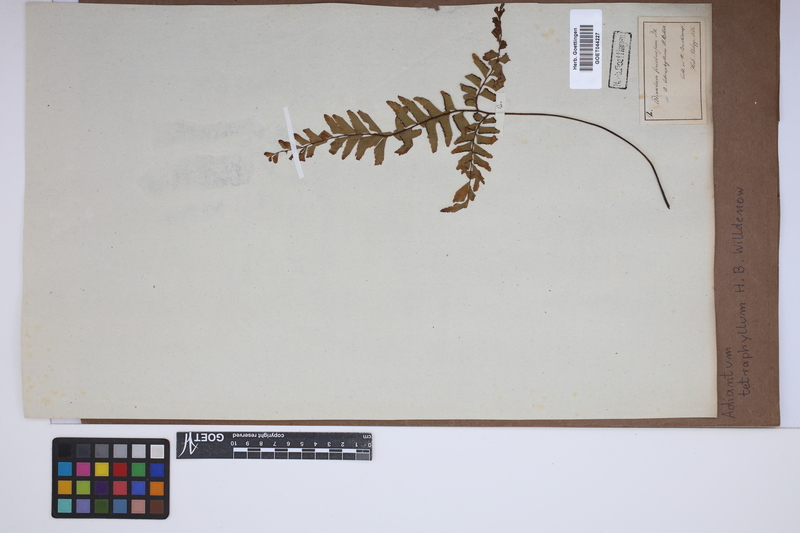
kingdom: Plantae
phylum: Tracheophyta
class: Polypodiopsida
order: Polypodiales
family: Pteridaceae
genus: Adiantum
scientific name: Adiantum tetraphyllum
